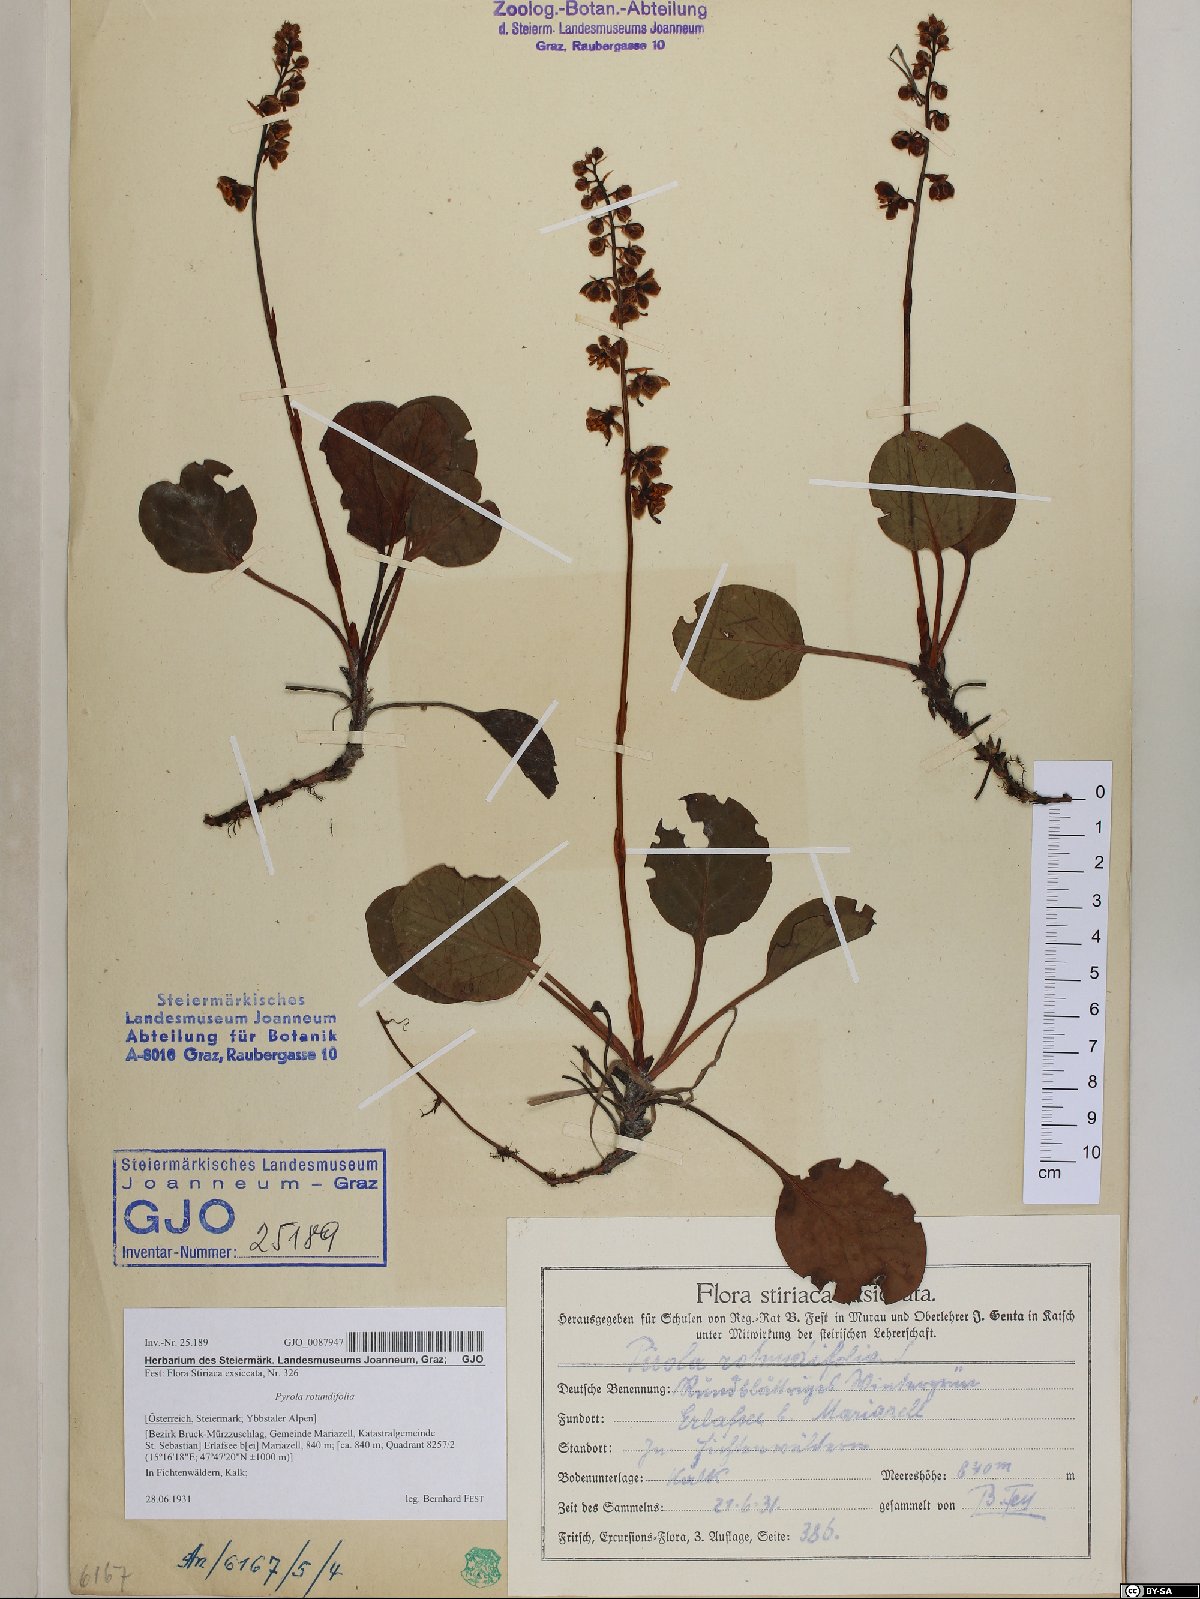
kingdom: Plantae
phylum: Tracheophyta
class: Magnoliopsida
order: Ericales
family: Ericaceae
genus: Pyrola
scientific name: Pyrola rotundifolia
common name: Round-leaved wintergreen
